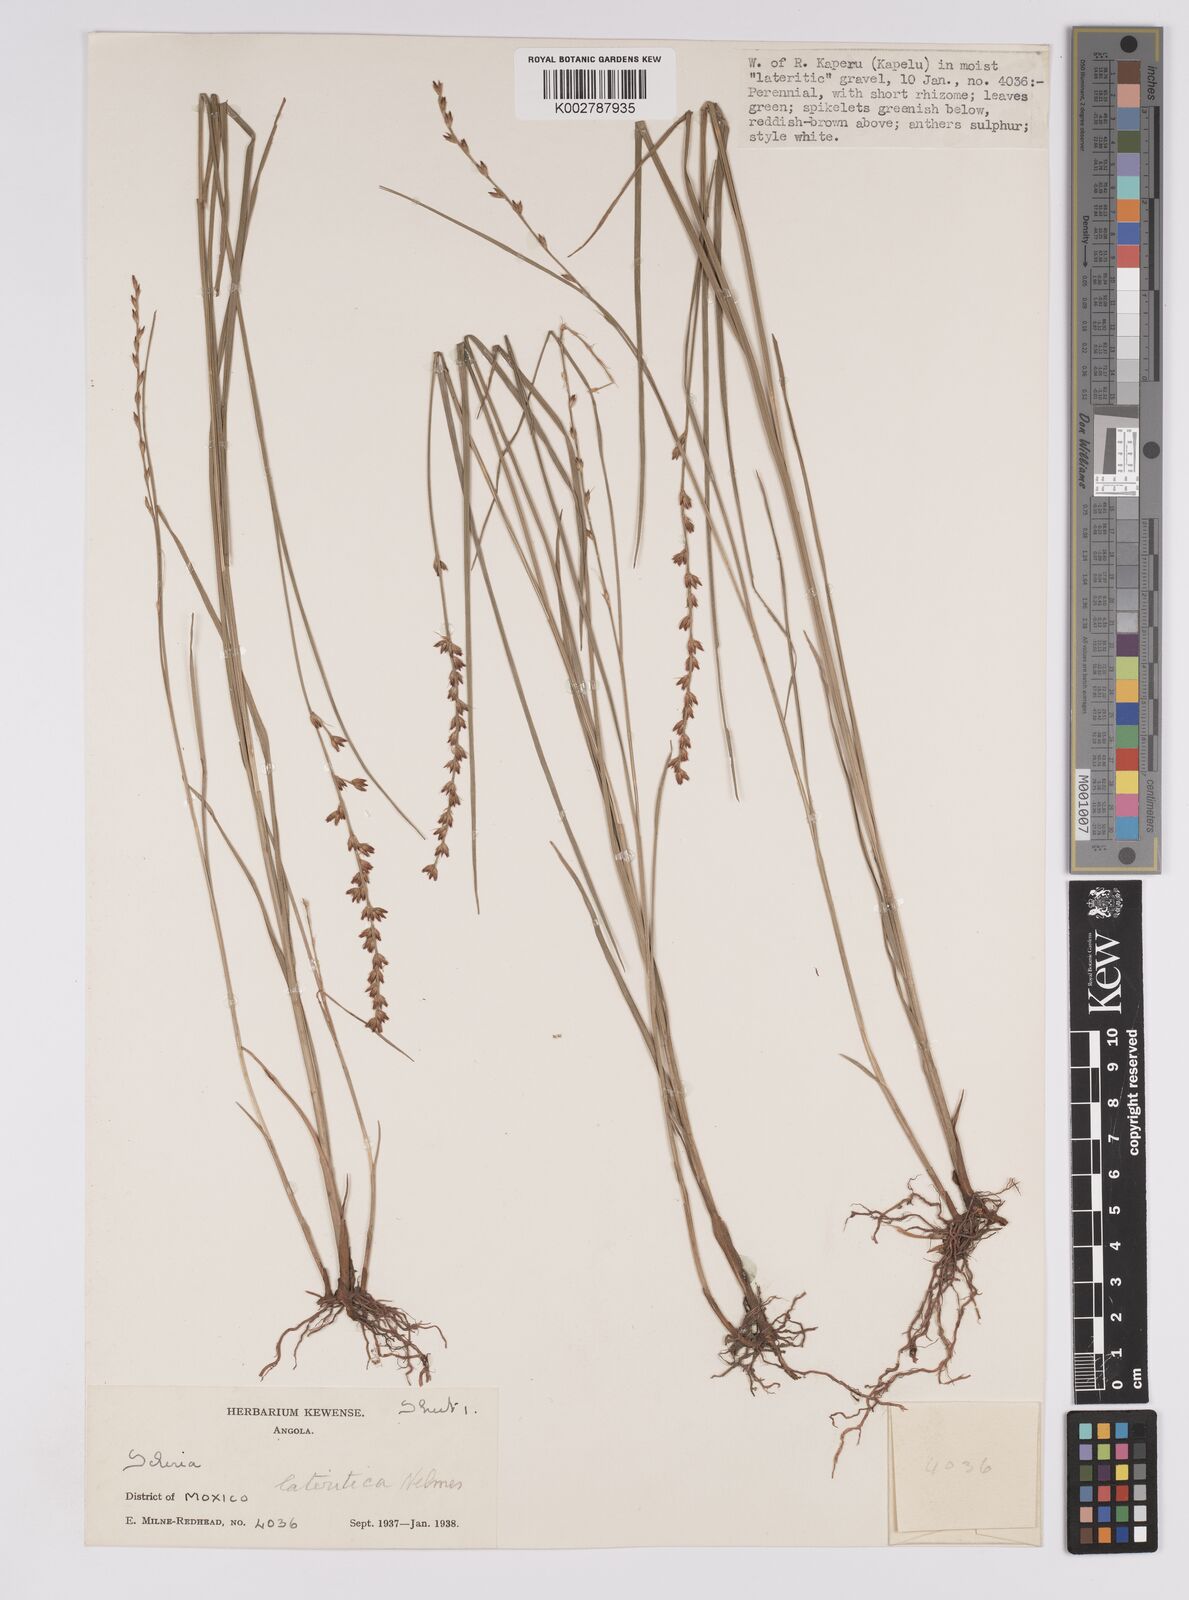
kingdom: Plantae
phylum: Tracheophyta
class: Liliopsida
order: Poales
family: Cyperaceae
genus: Scleria
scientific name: Scleria flexuosa
